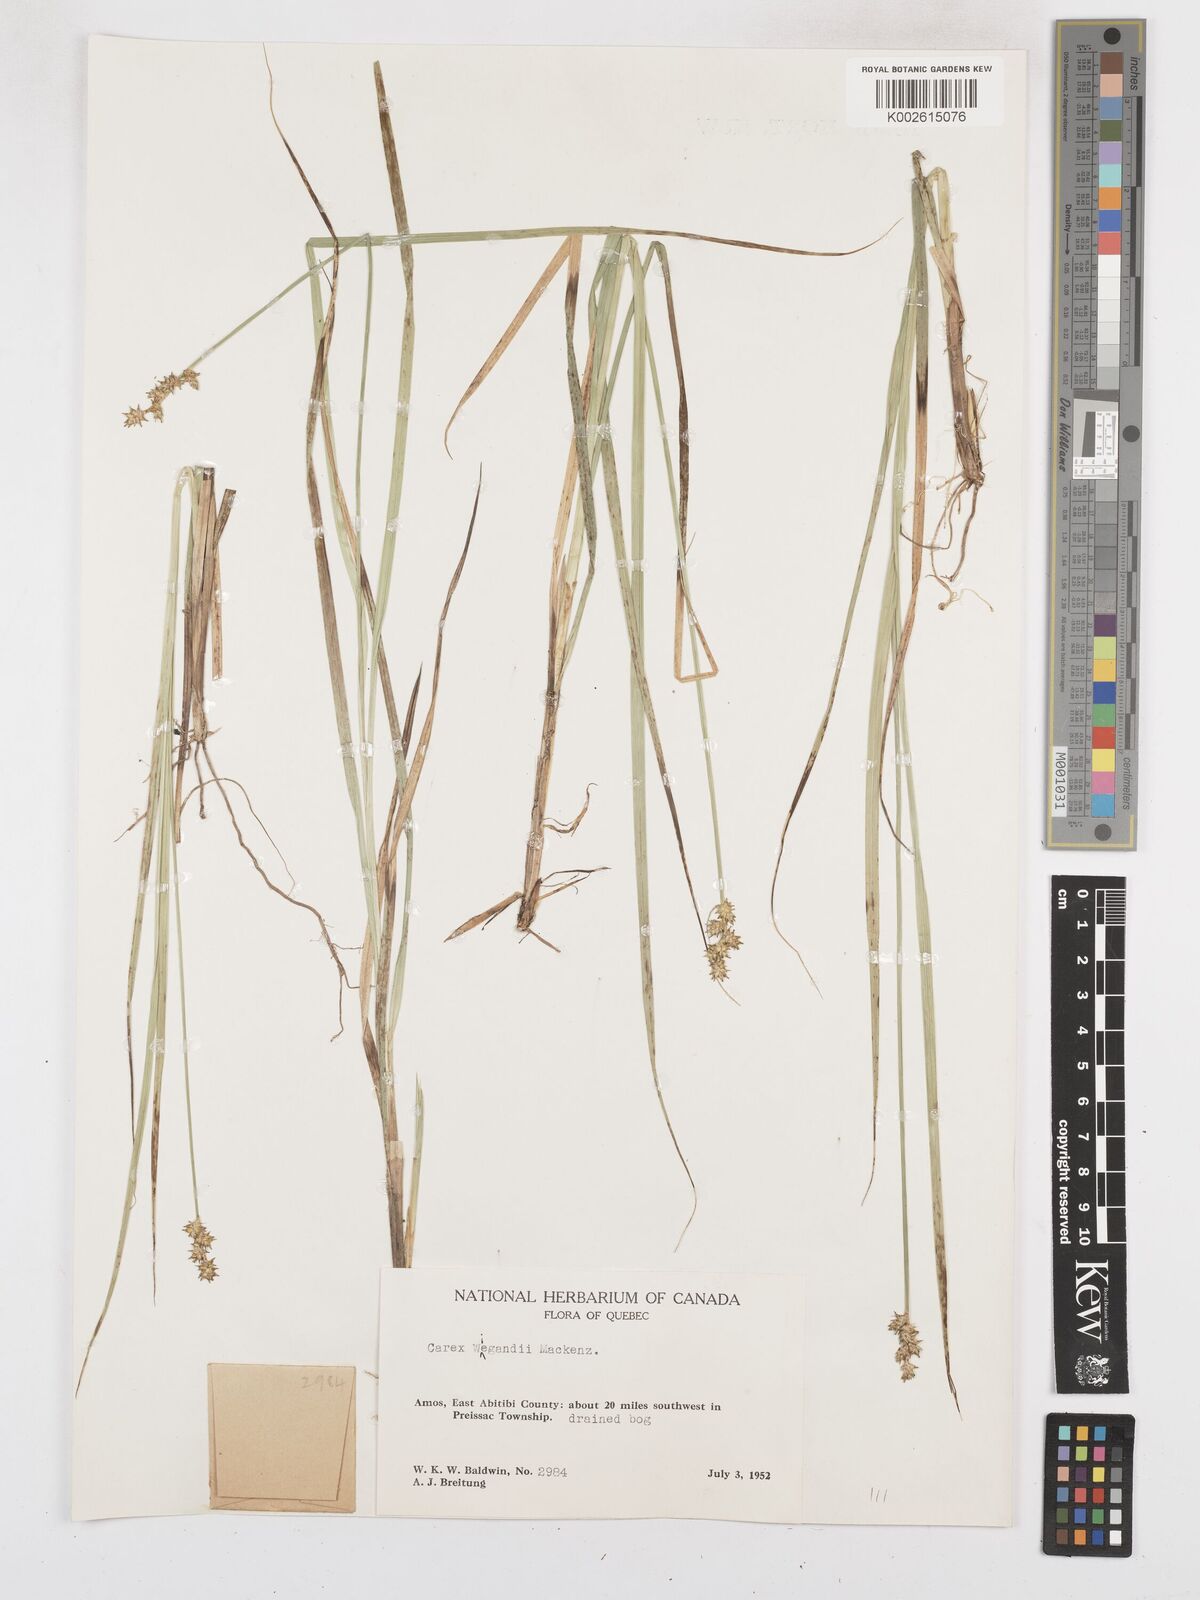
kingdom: Plantae
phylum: Tracheophyta
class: Liliopsida
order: Poales
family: Cyperaceae
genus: Carex
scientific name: Carex wiegandii
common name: Wiegand's sedge
